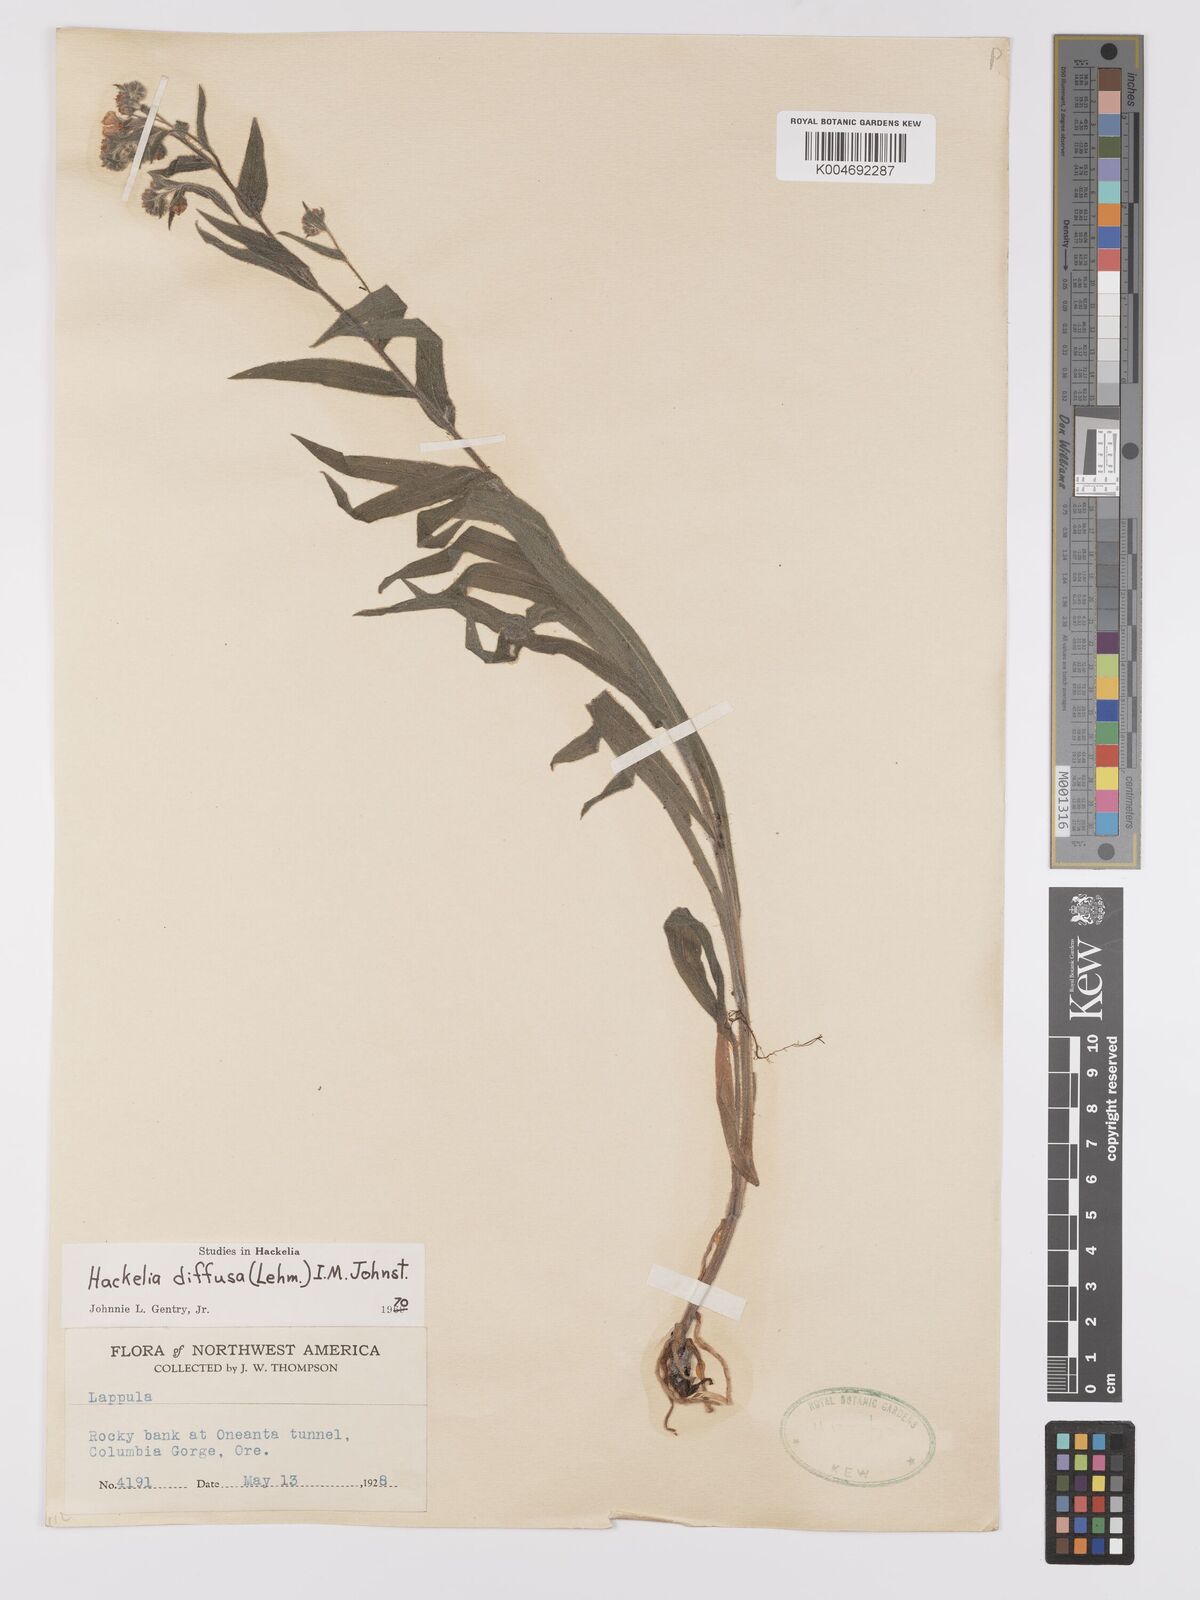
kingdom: Plantae
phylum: Tracheophyta
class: Magnoliopsida
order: Boraginales
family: Boraginaceae
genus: Hackelia
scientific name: Hackelia diffusa
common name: Spreading hackelia
